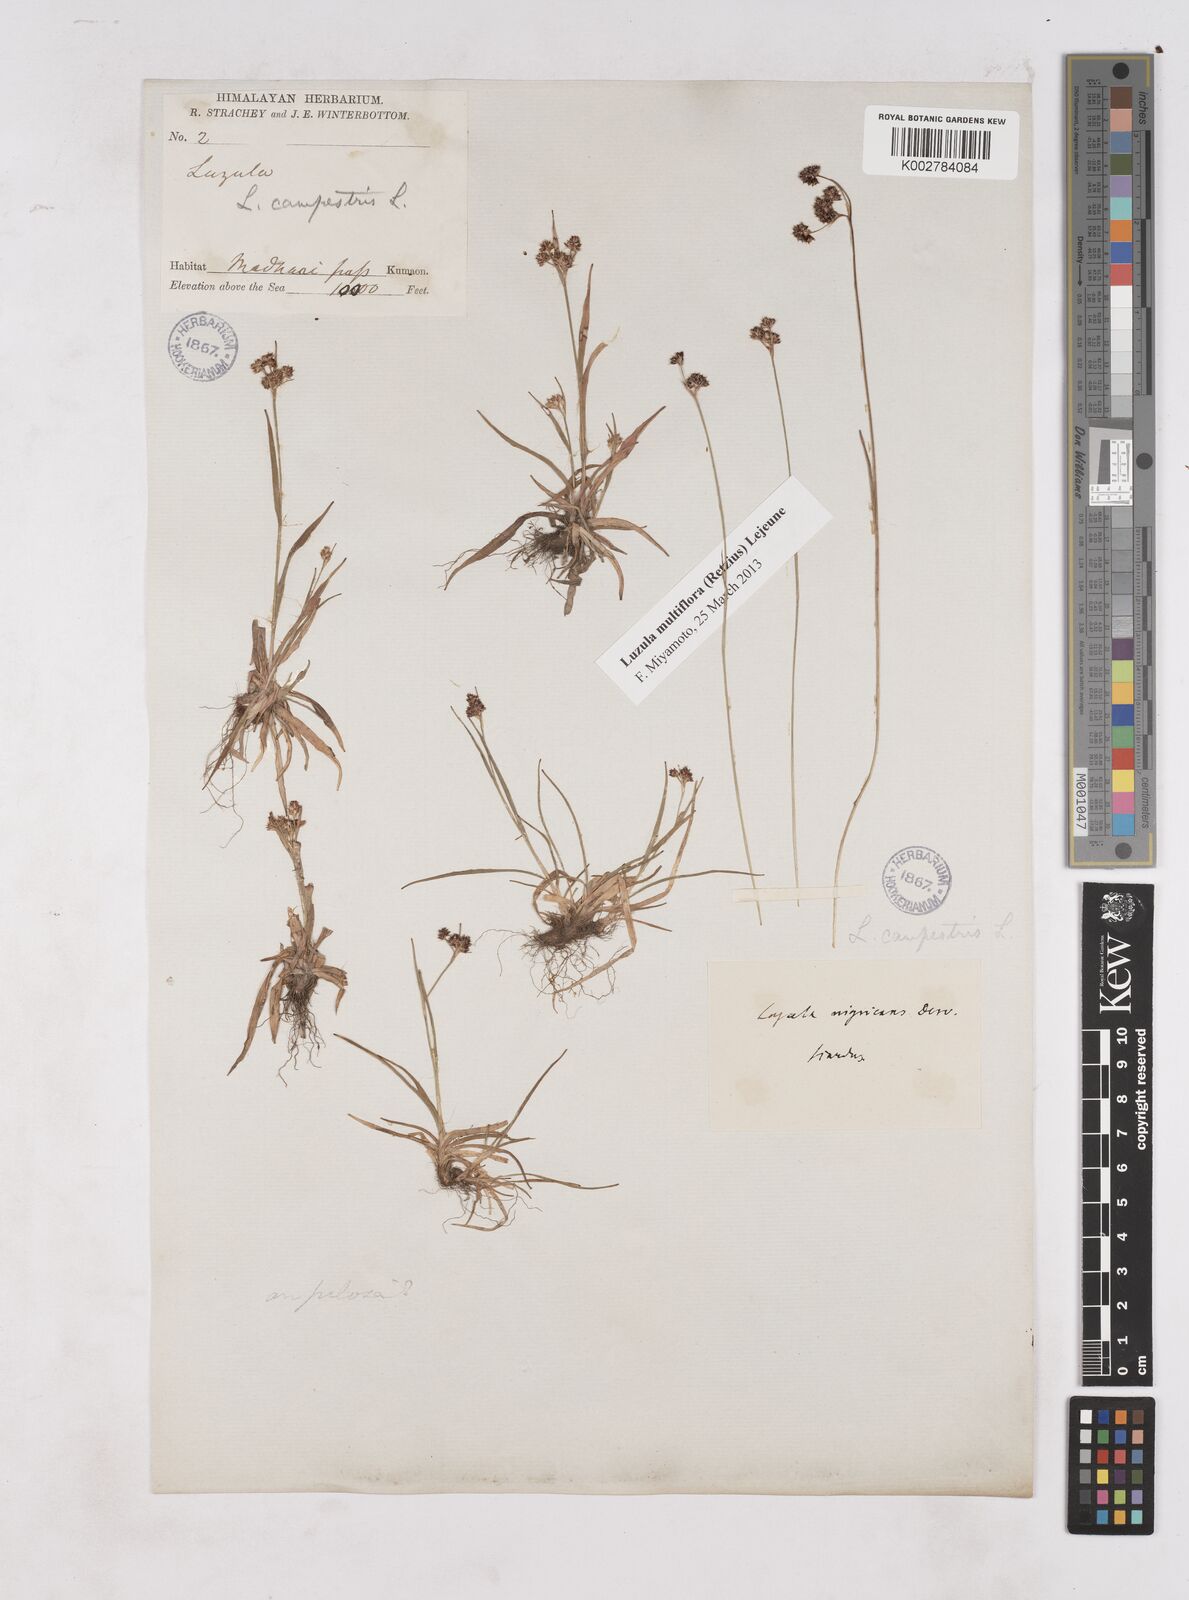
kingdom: Plantae
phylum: Tracheophyta
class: Liliopsida
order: Poales
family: Juncaceae
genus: Luzula
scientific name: Luzula campestris
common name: Field wood-rush
